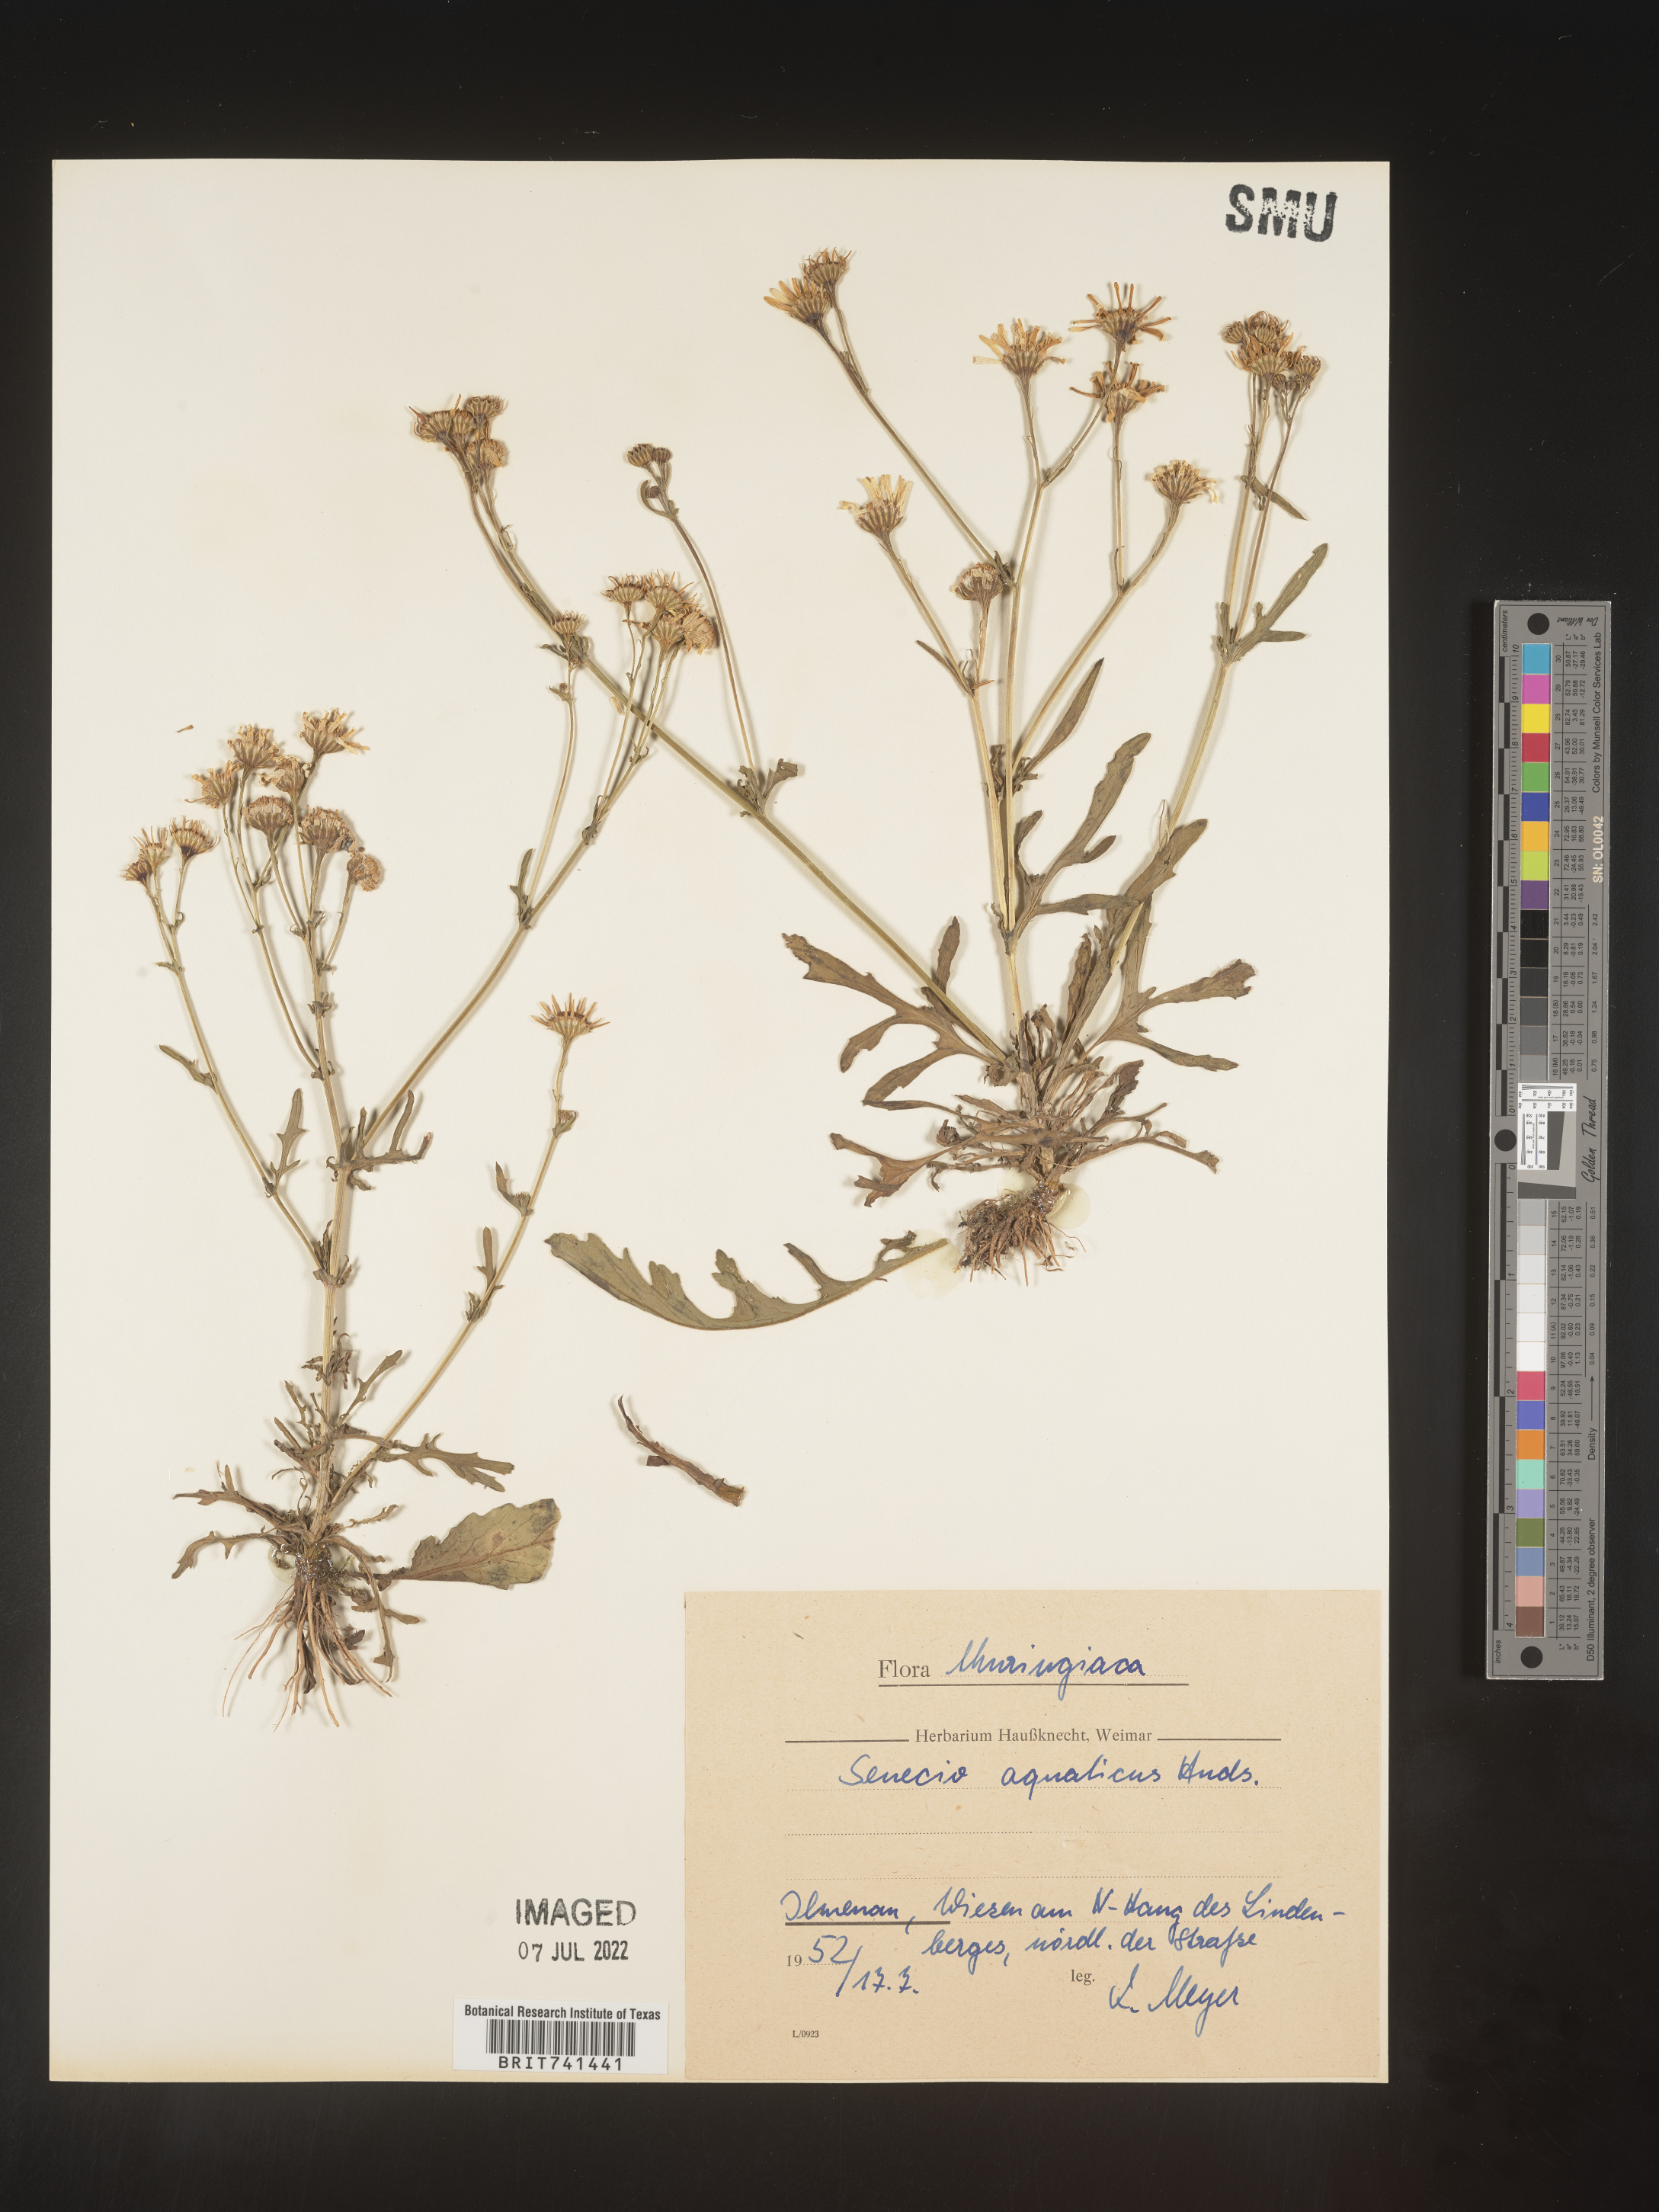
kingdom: Plantae
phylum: Tracheophyta
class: Magnoliopsida
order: Asterales
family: Asteraceae
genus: Senecio
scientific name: Senecio
